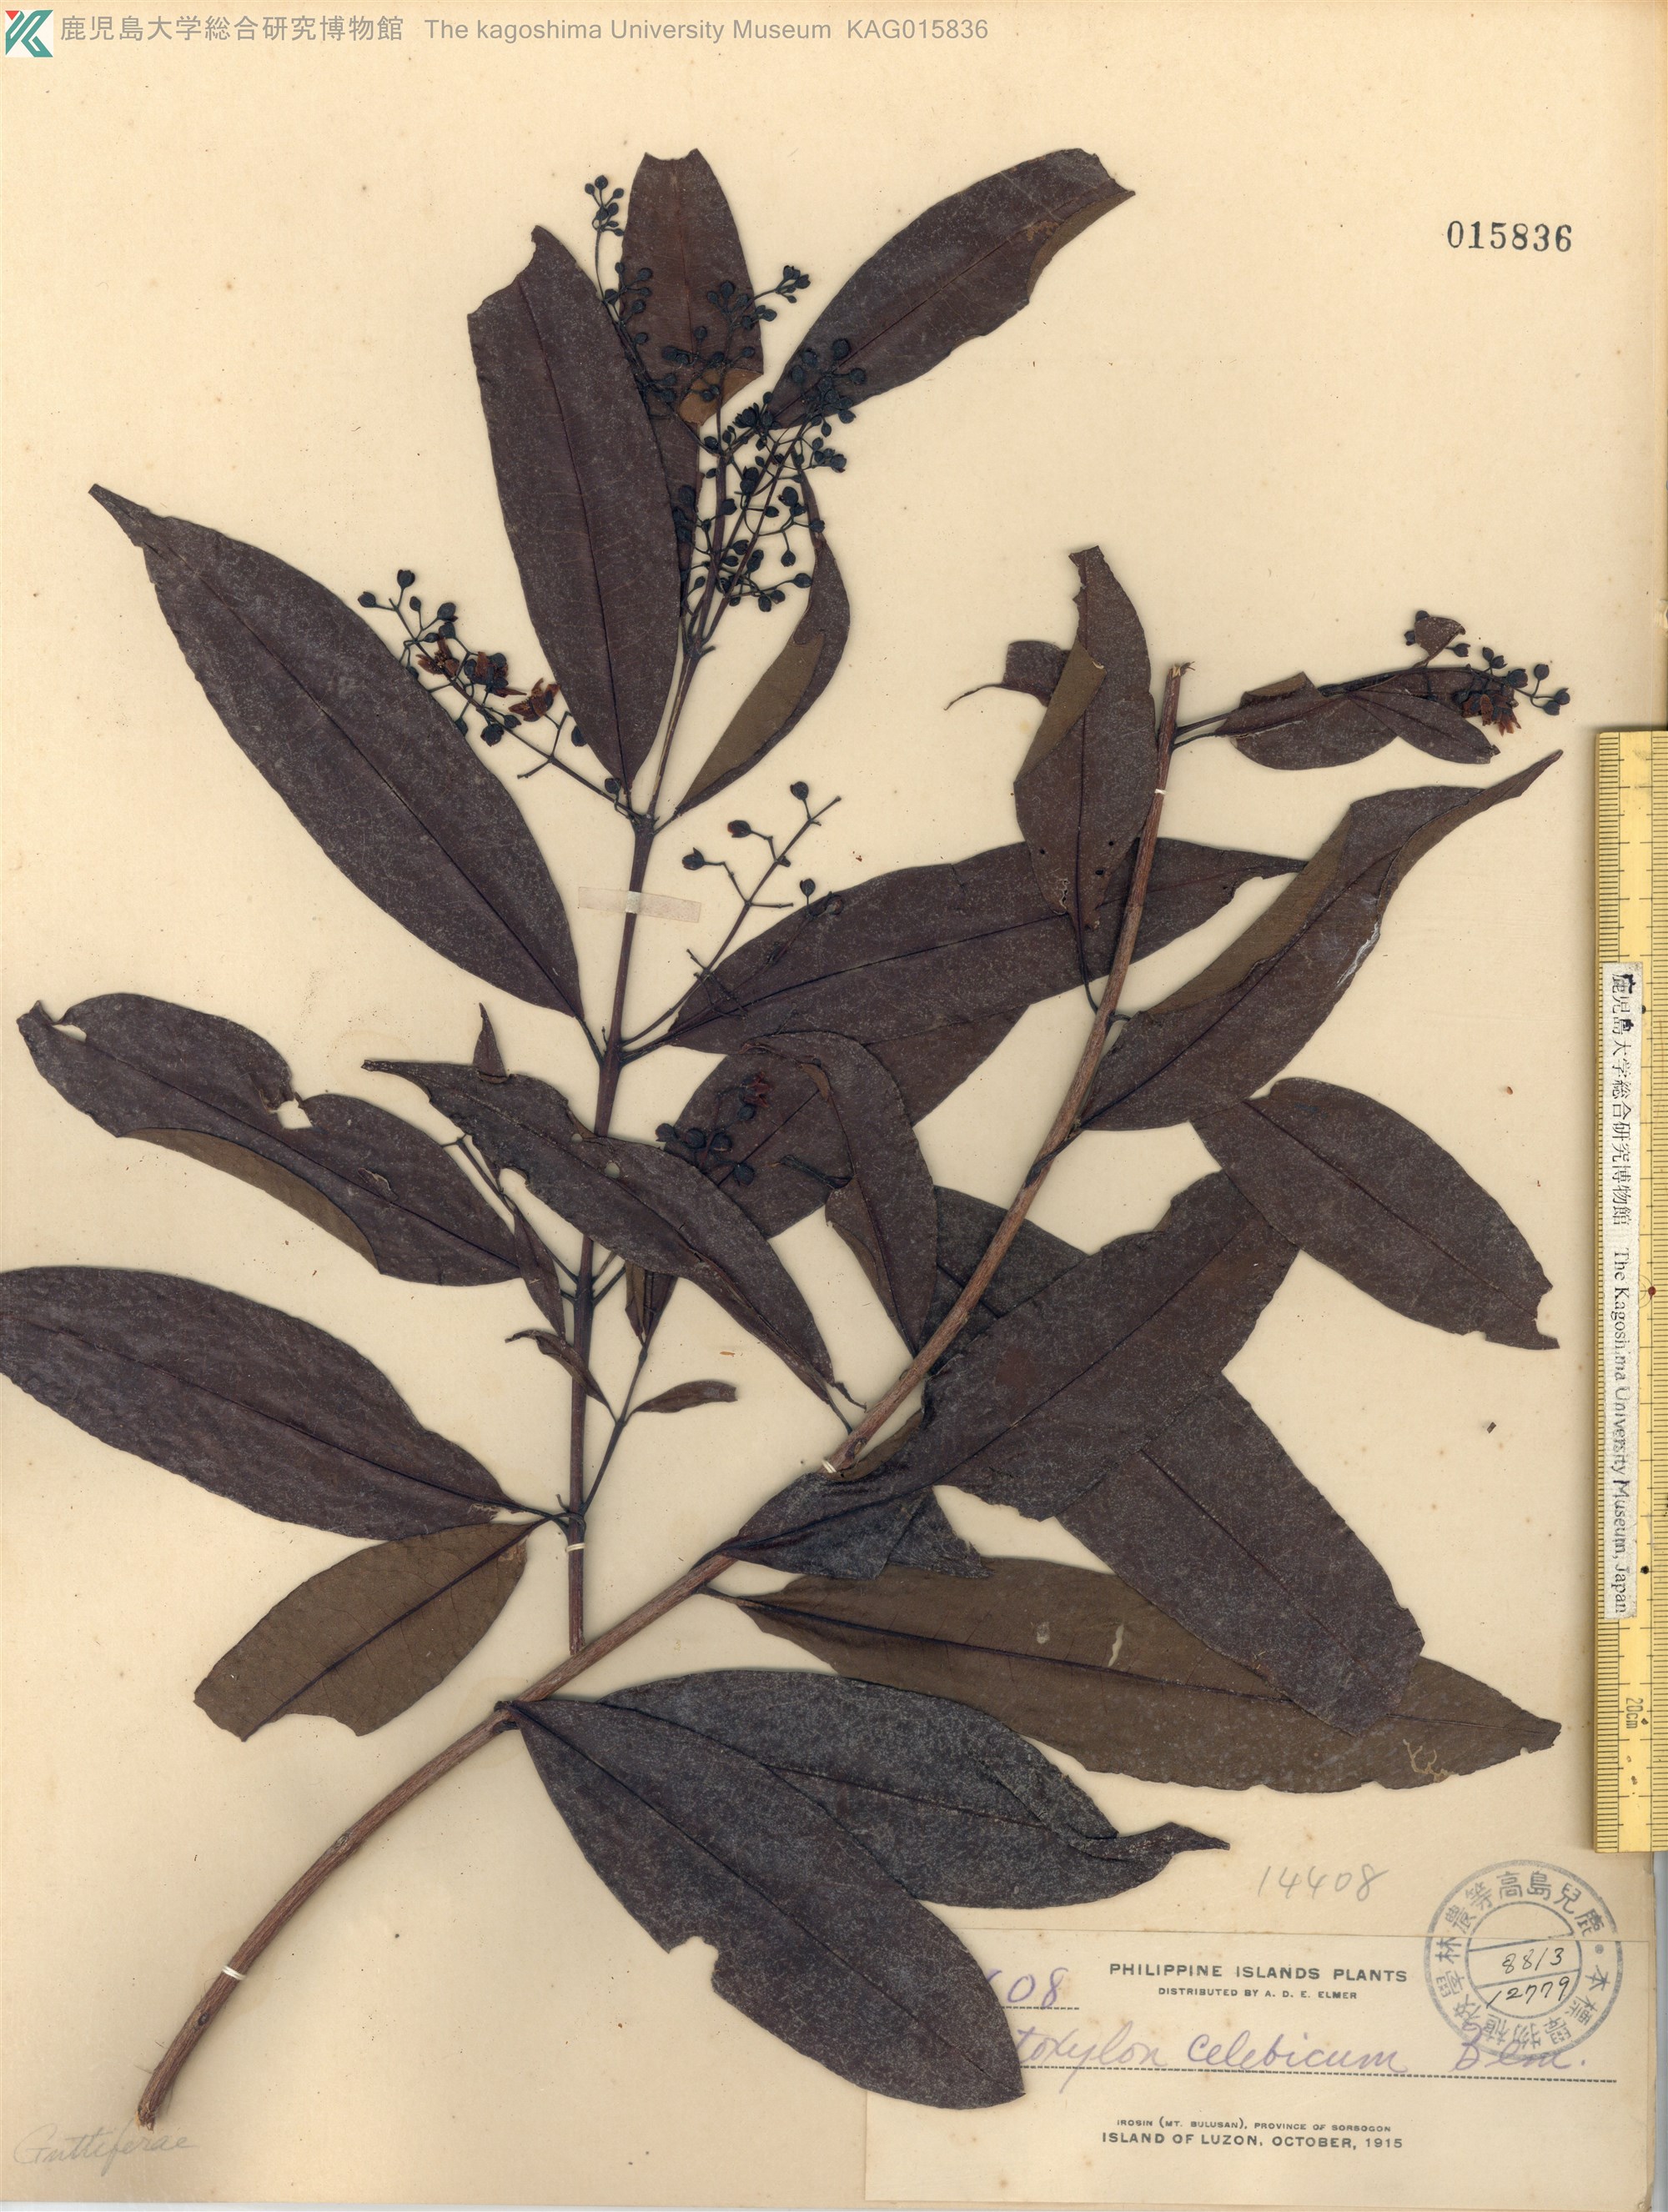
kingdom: Plantae
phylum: Tracheophyta
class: Magnoliopsida
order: Malpighiales
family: Hypericaceae
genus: Cratoxylum
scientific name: Cratoxylum sumatranum
